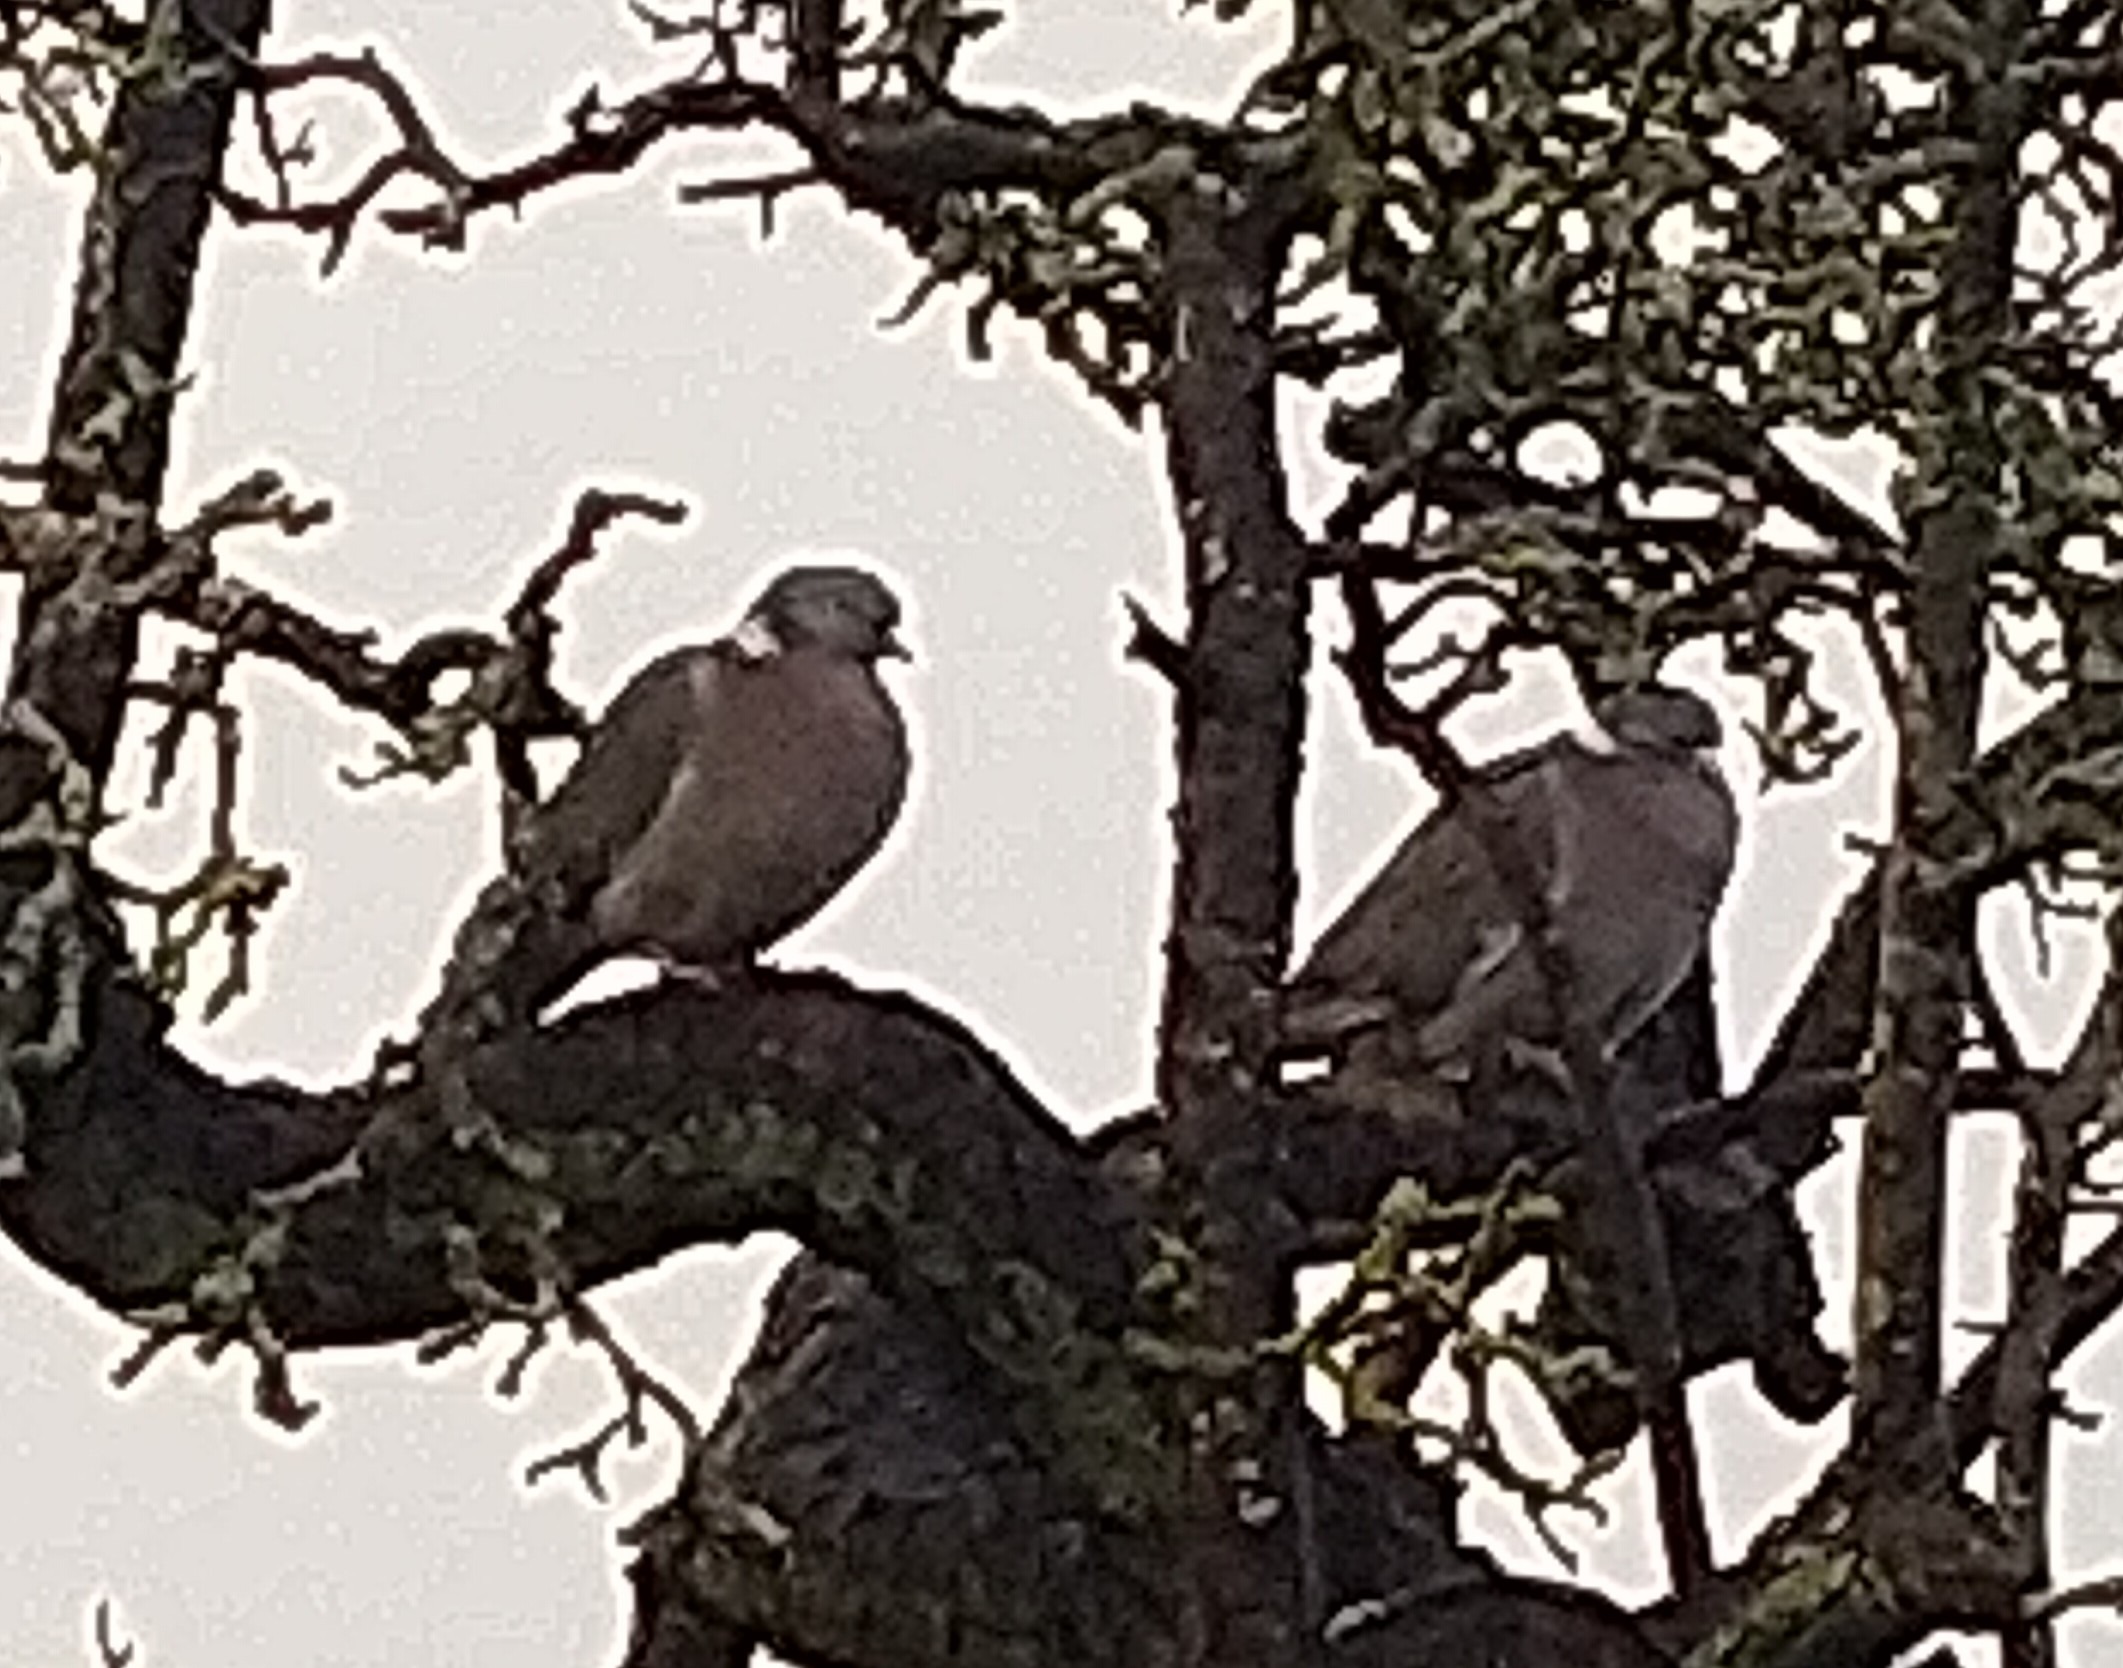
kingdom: Animalia
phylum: Chordata
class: Aves
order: Columbiformes
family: Columbidae
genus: Columba
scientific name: Columba palumbus
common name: Ringdue
